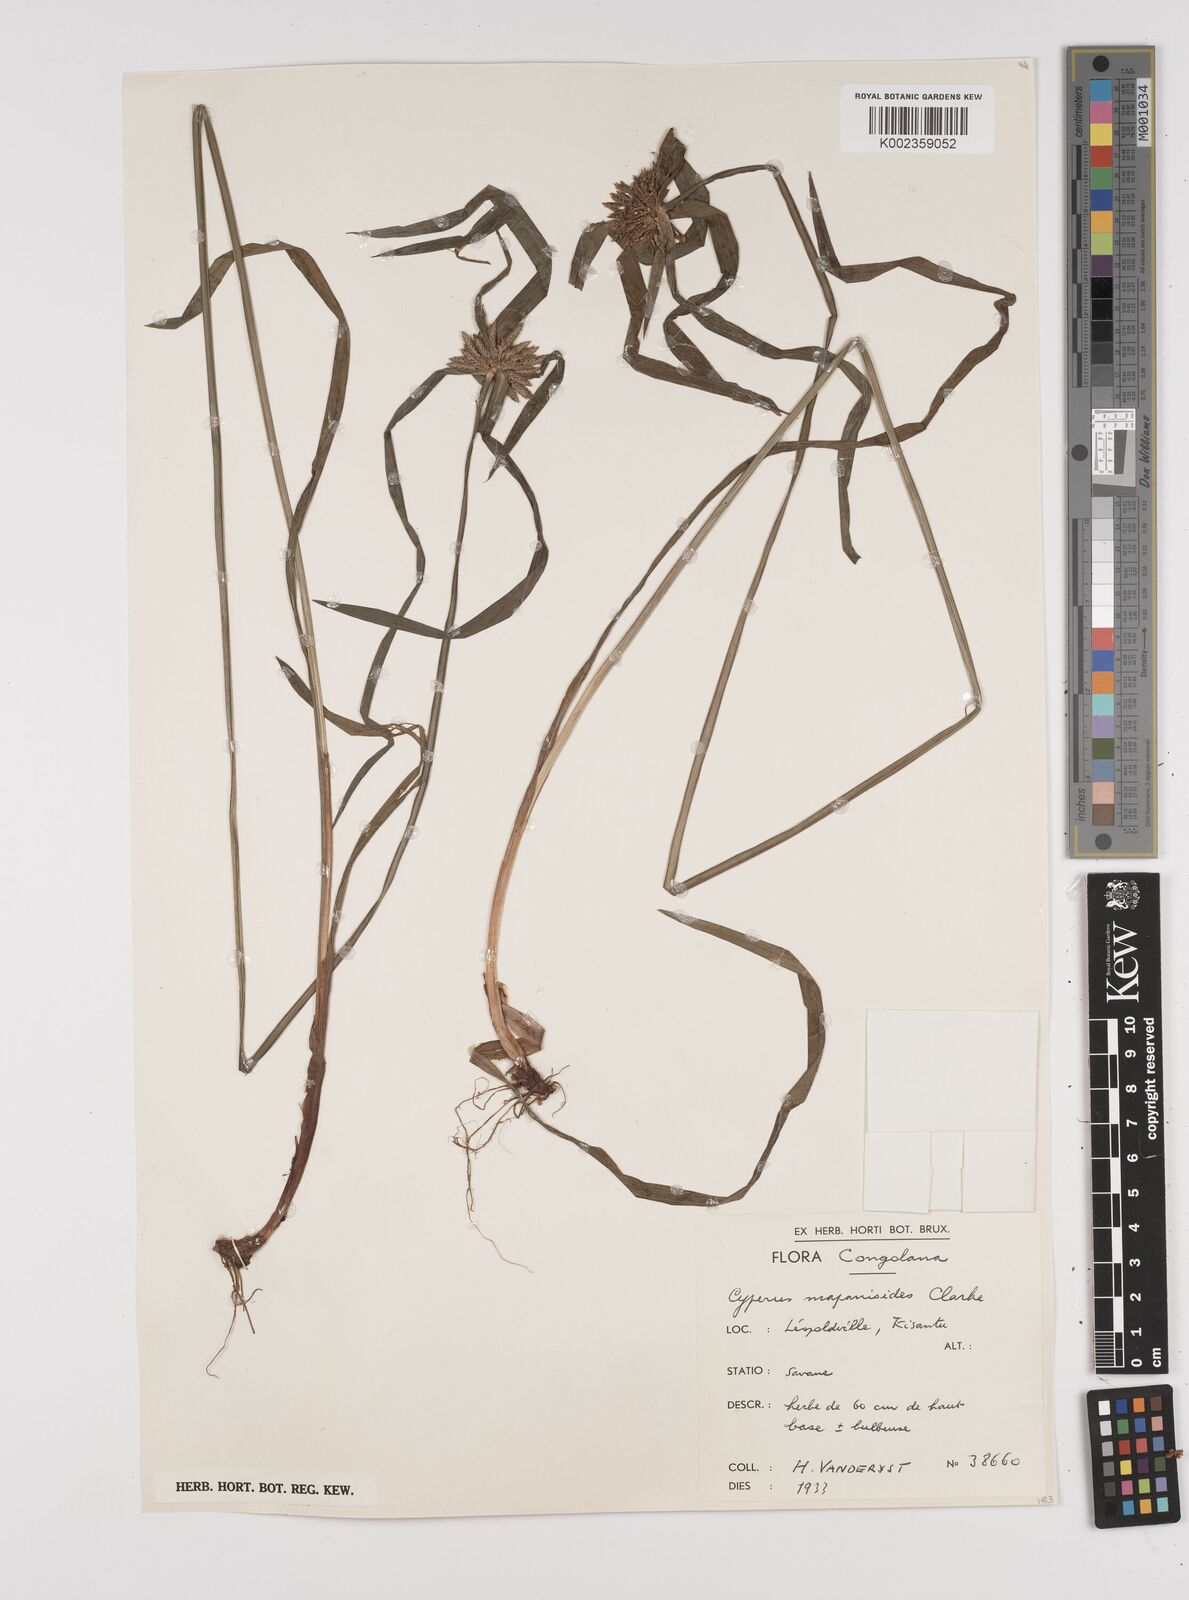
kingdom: Plantae
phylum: Tracheophyta
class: Liliopsida
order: Poales
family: Cyperaceae
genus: Cyperus
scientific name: Cyperus mapanioides
